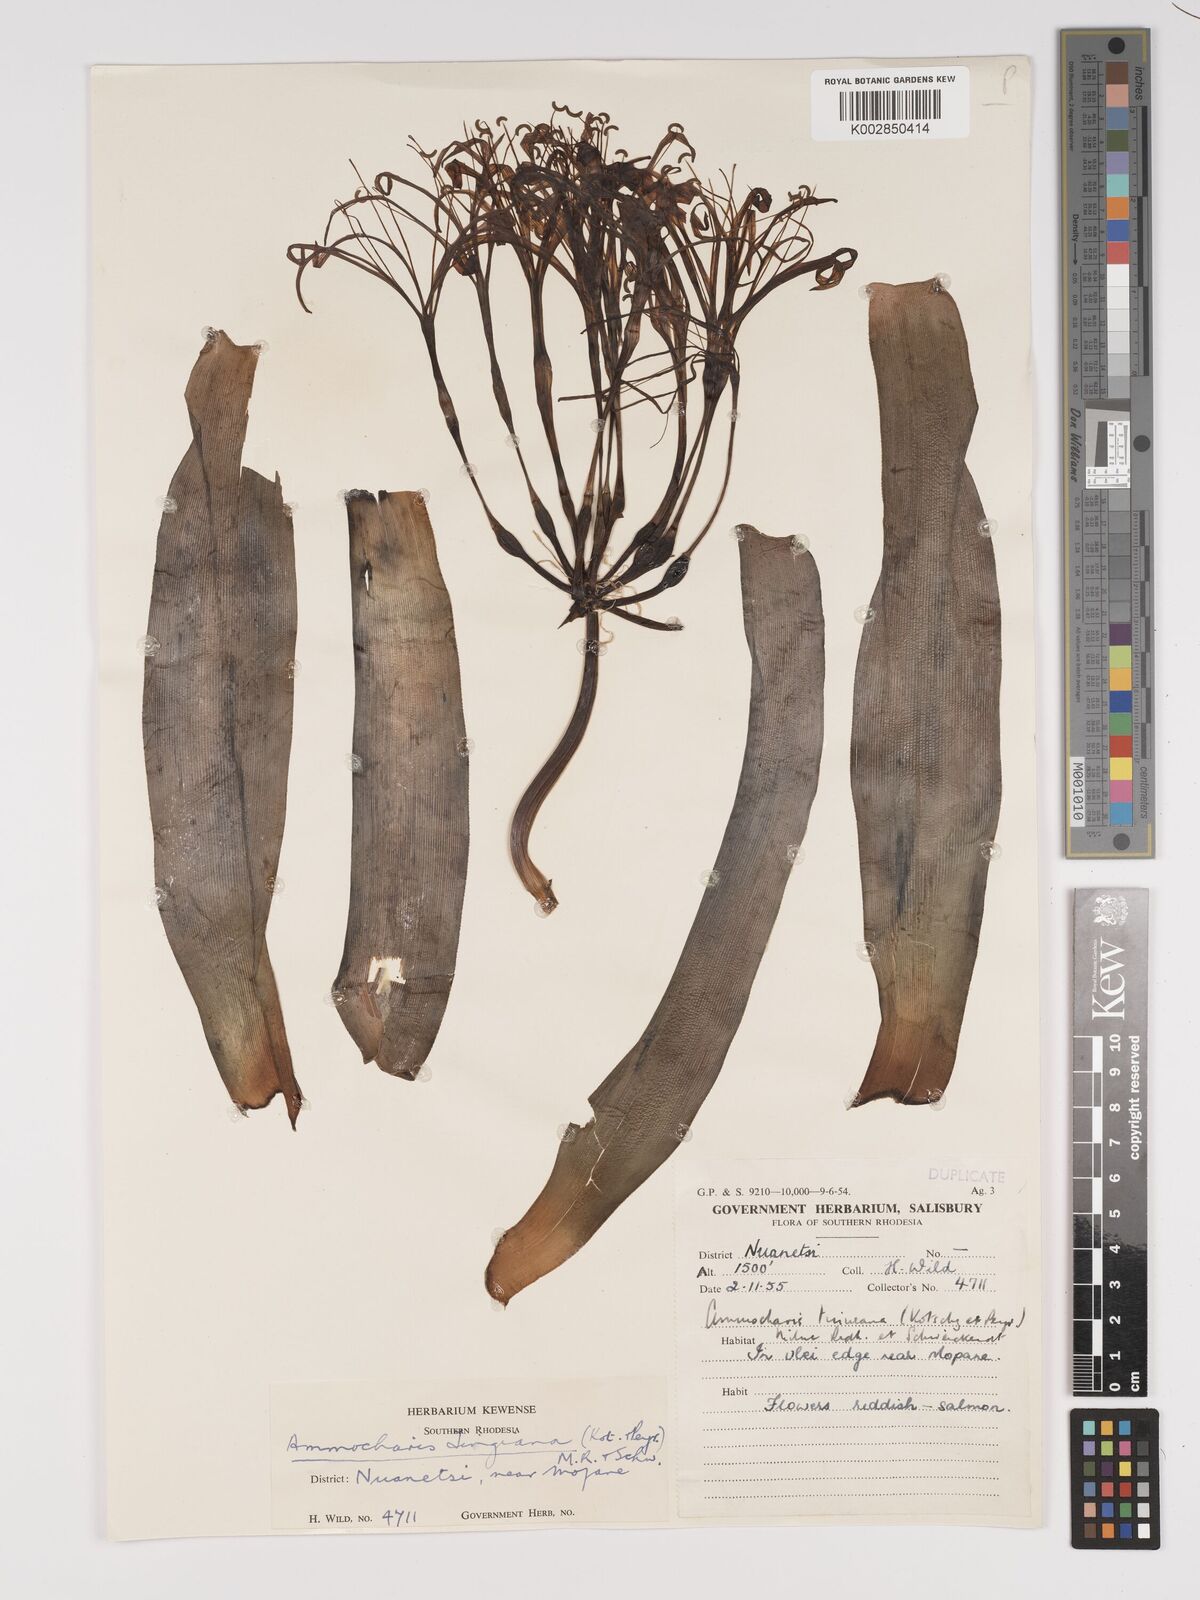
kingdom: Plantae
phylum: Tracheophyta
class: Liliopsida
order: Asparagales
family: Amaryllidaceae
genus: Ammocharis
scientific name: Ammocharis tinneana
